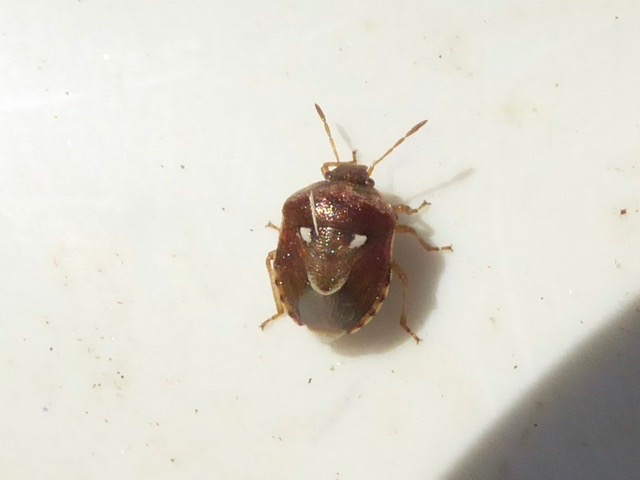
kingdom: Animalia
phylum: Arthropoda
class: Insecta
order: Hemiptera
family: Pentatomidae
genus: Stagonomus
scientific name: Stagonomus bipunctatus
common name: Toplettet urtetæge
